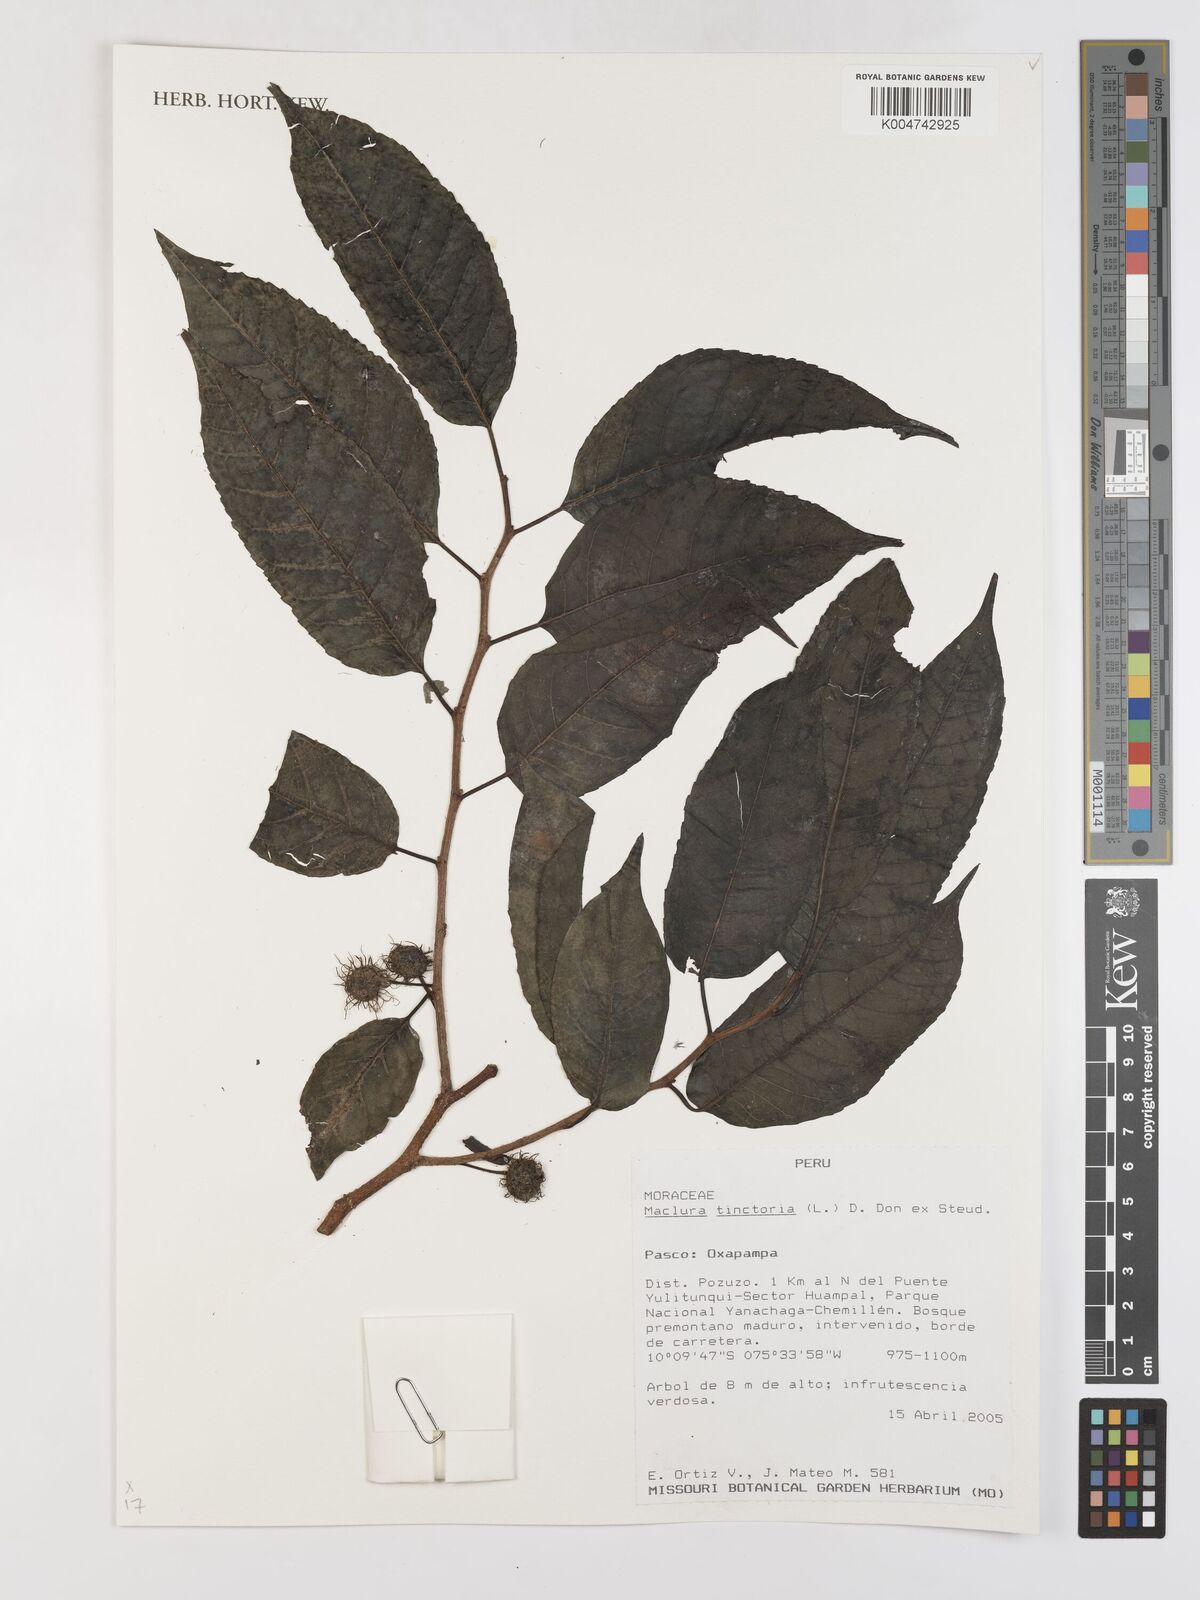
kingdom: Plantae
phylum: Tracheophyta
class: Magnoliopsida
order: Rosales
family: Moraceae
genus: Maclura
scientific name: Maclura tinctoria
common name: Old fustic
